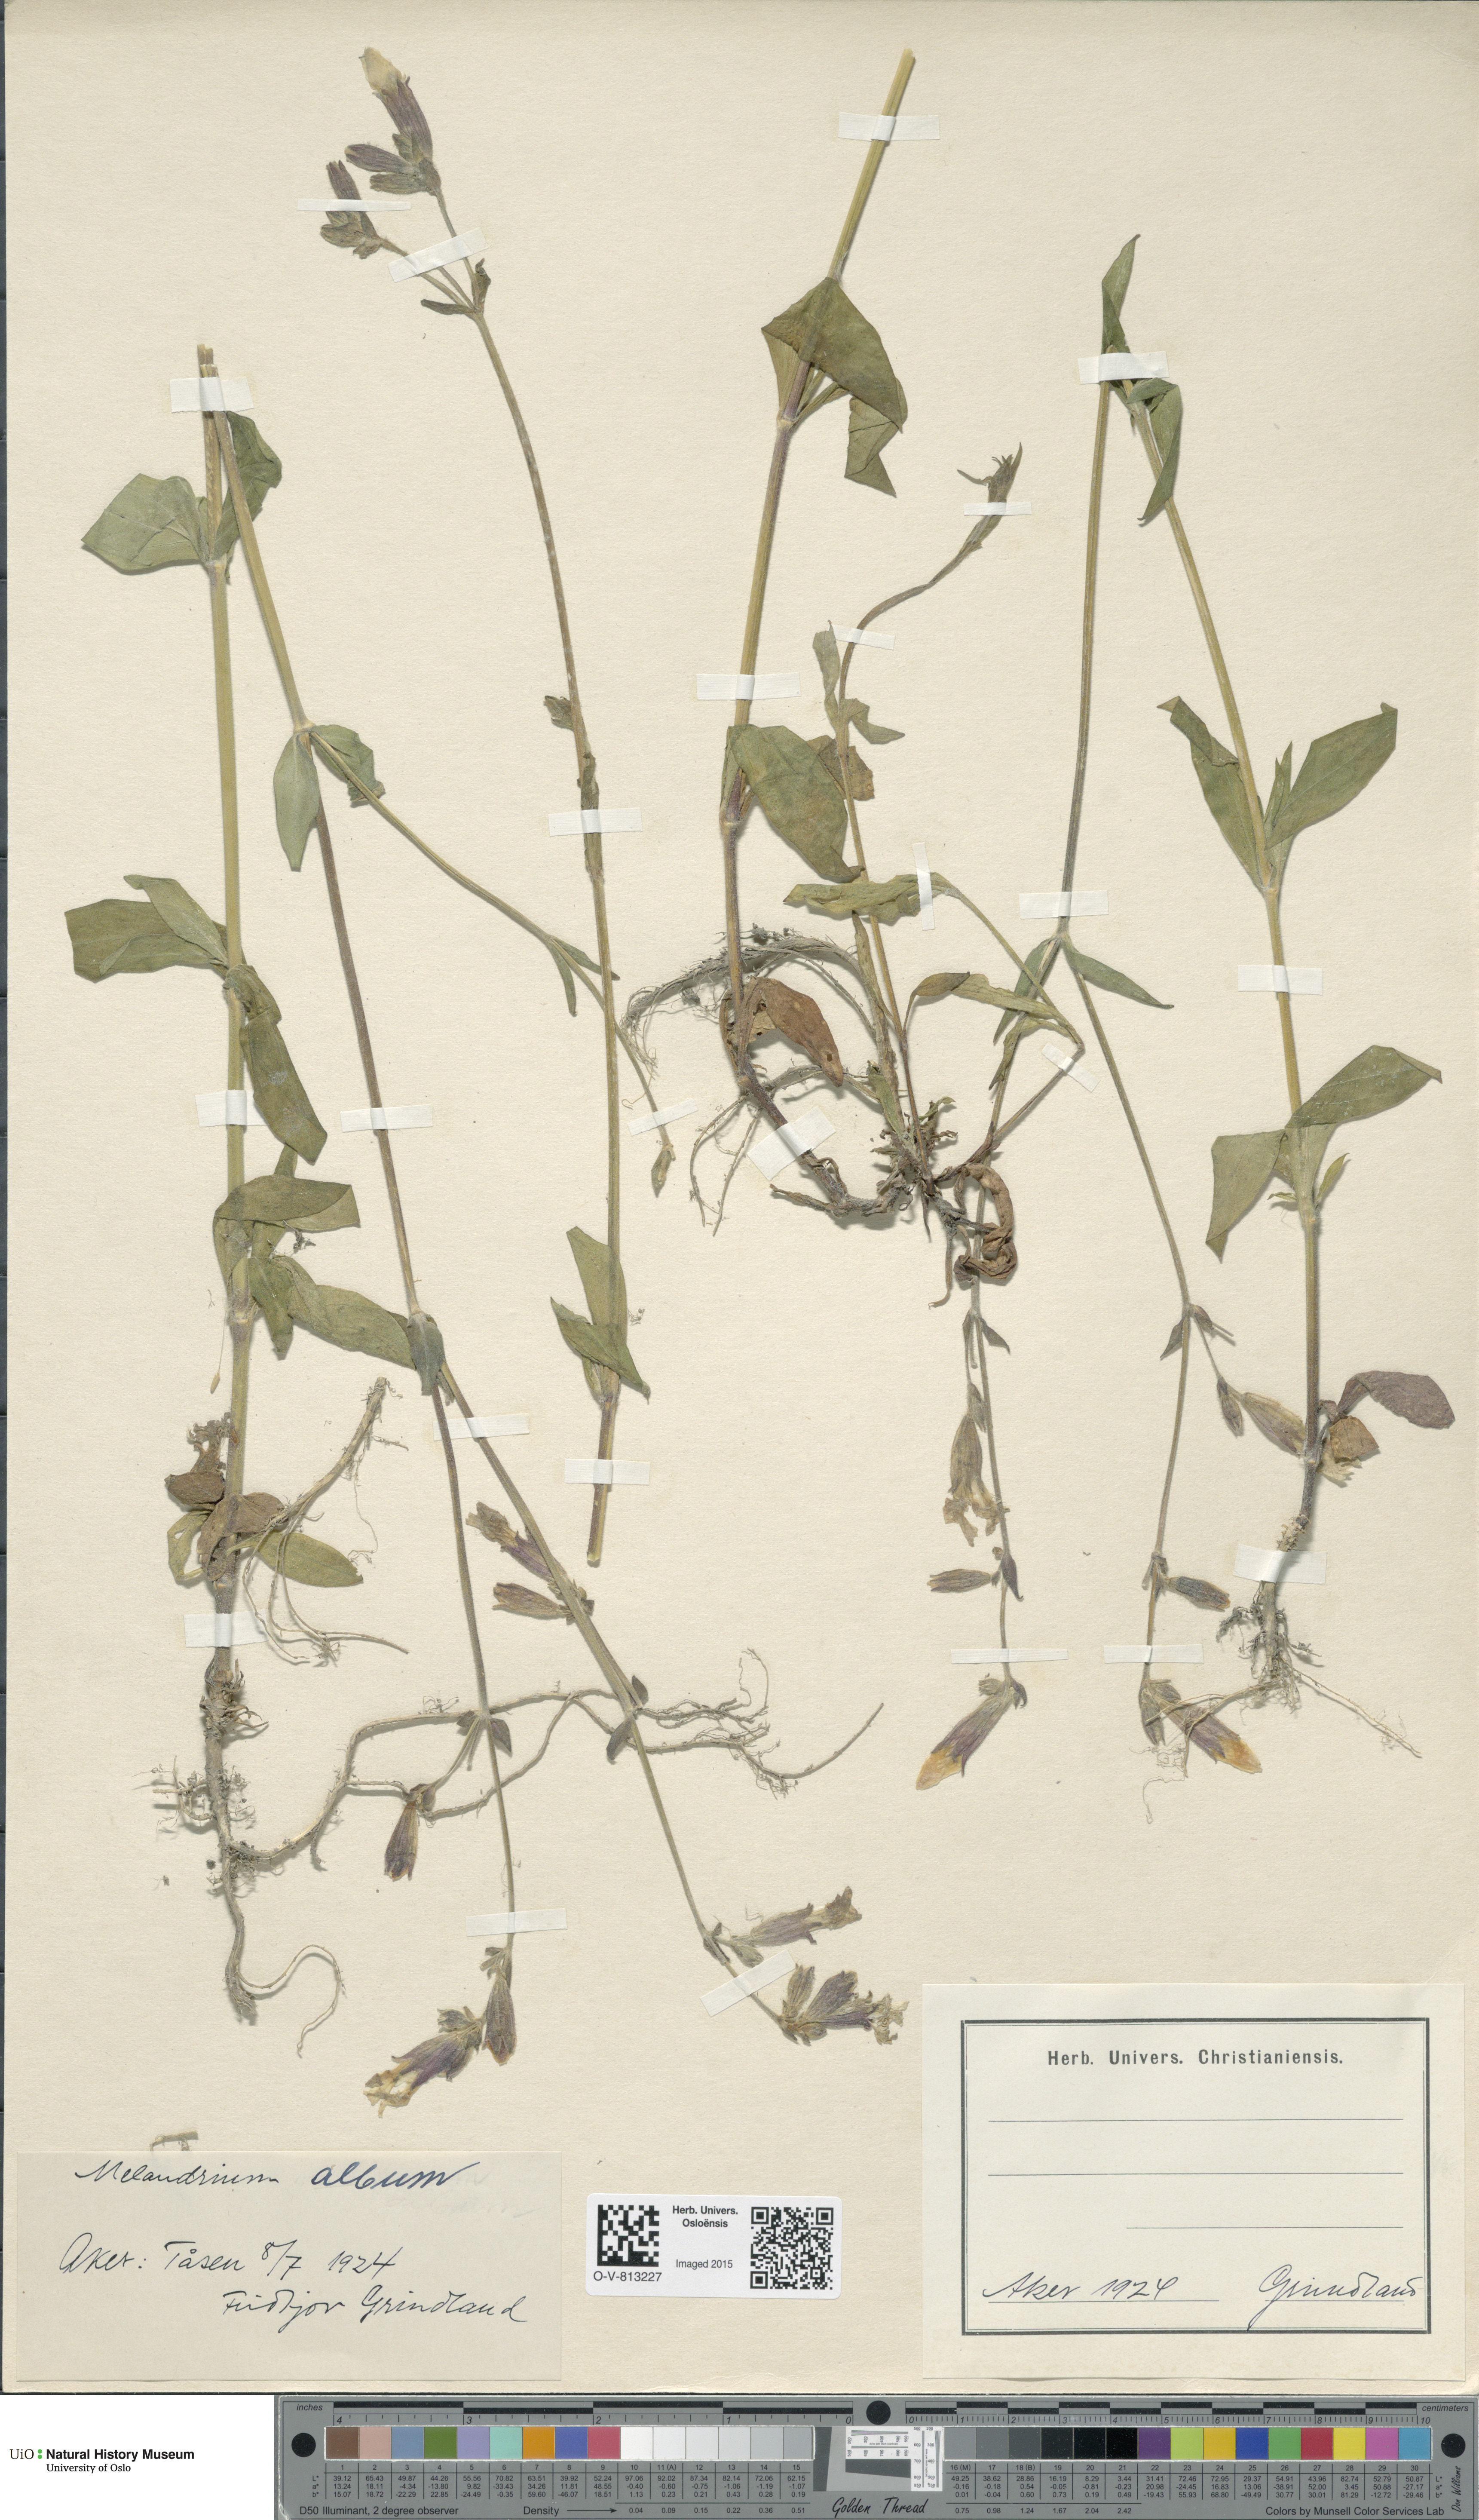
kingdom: Plantae
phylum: Tracheophyta
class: Magnoliopsida
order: Caryophyllales
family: Caryophyllaceae
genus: Silene
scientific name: Silene latifolia
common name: White campion
